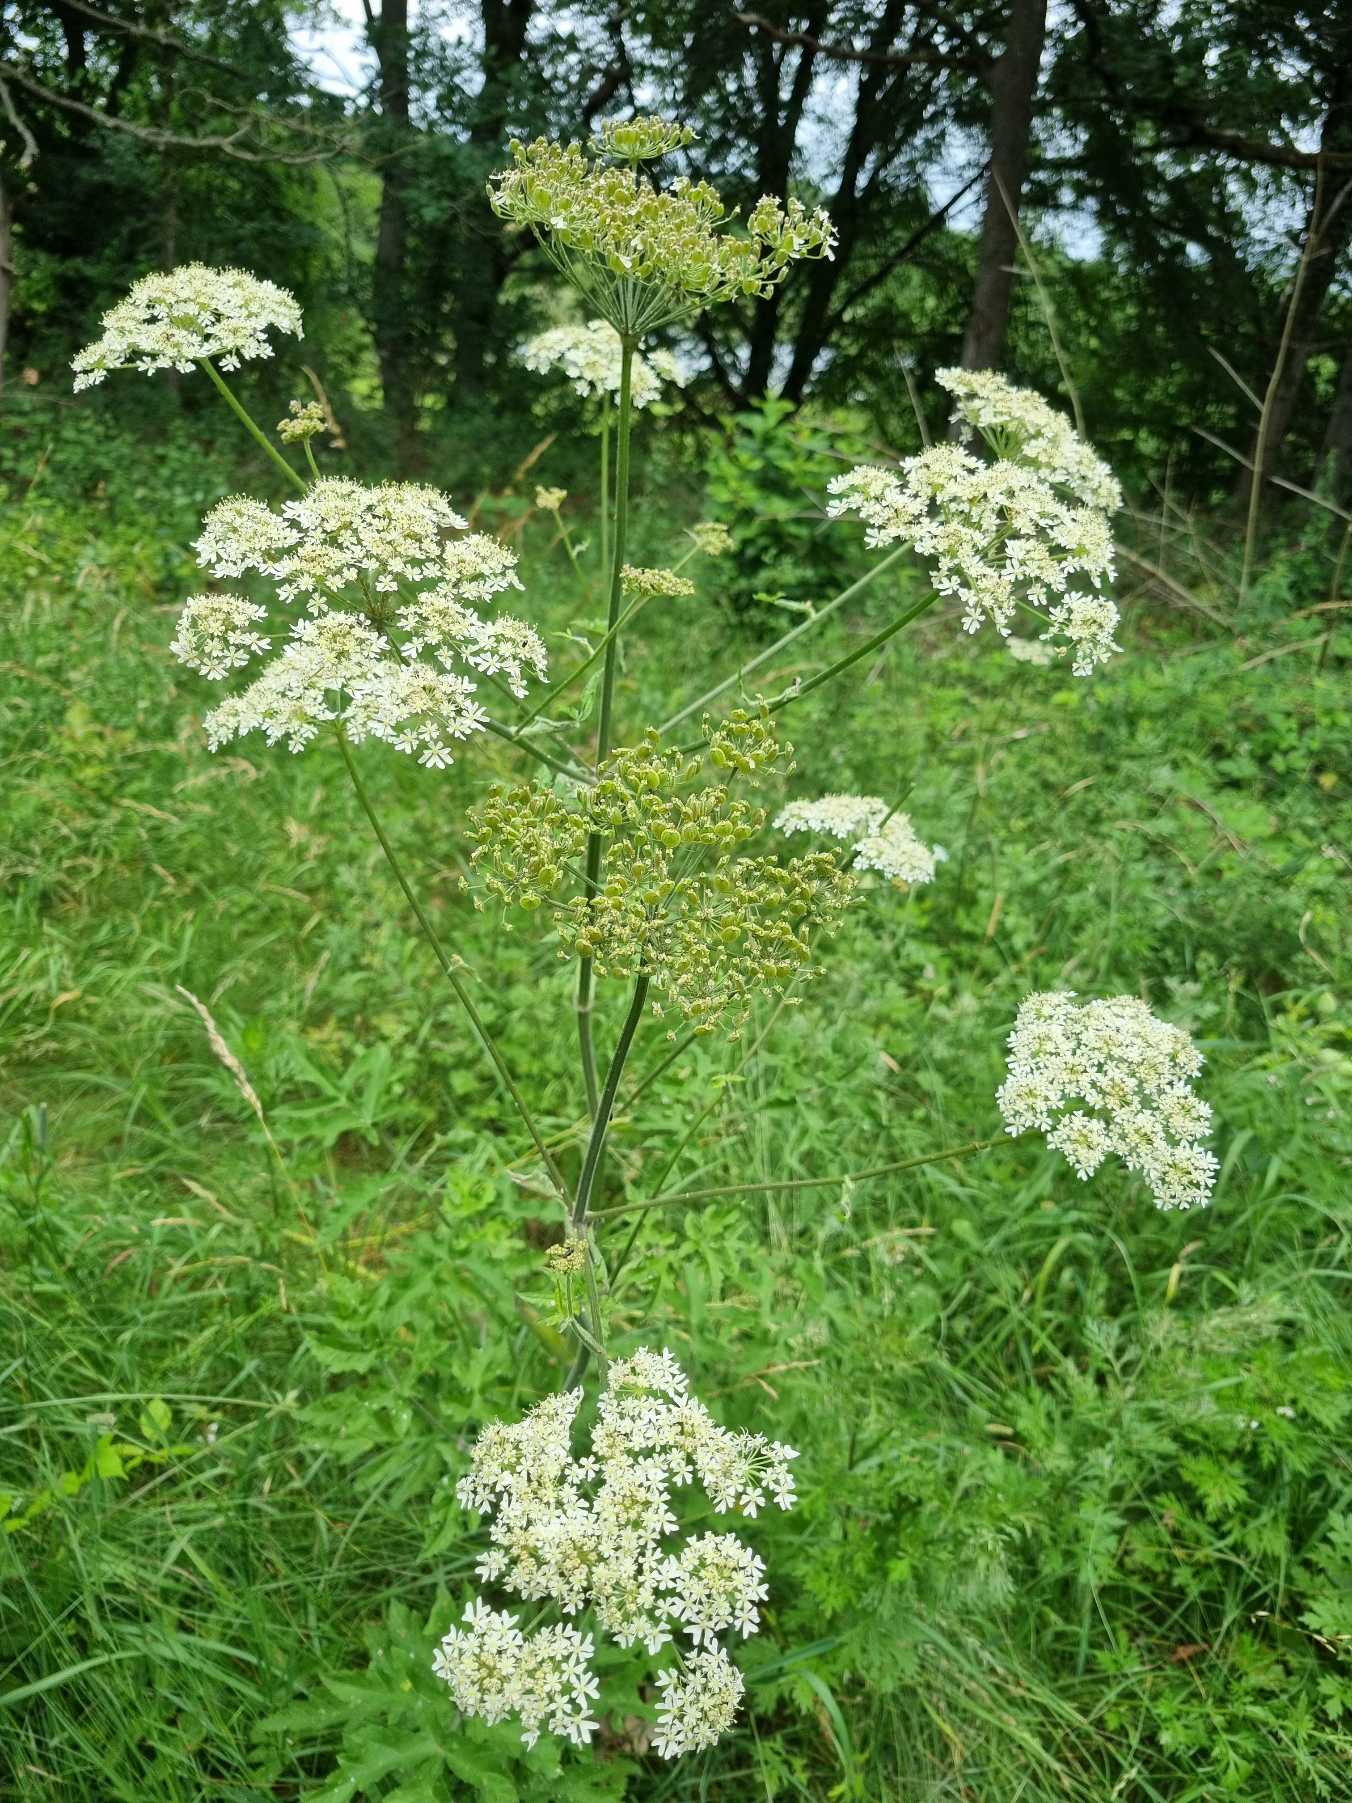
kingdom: Plantae
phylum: Tracheophyta
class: Magnoliopsida
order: Apiales
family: Apiaceae
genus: Heracleum
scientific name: Heracleum sphondylium
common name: Almindelig bjørneklo
